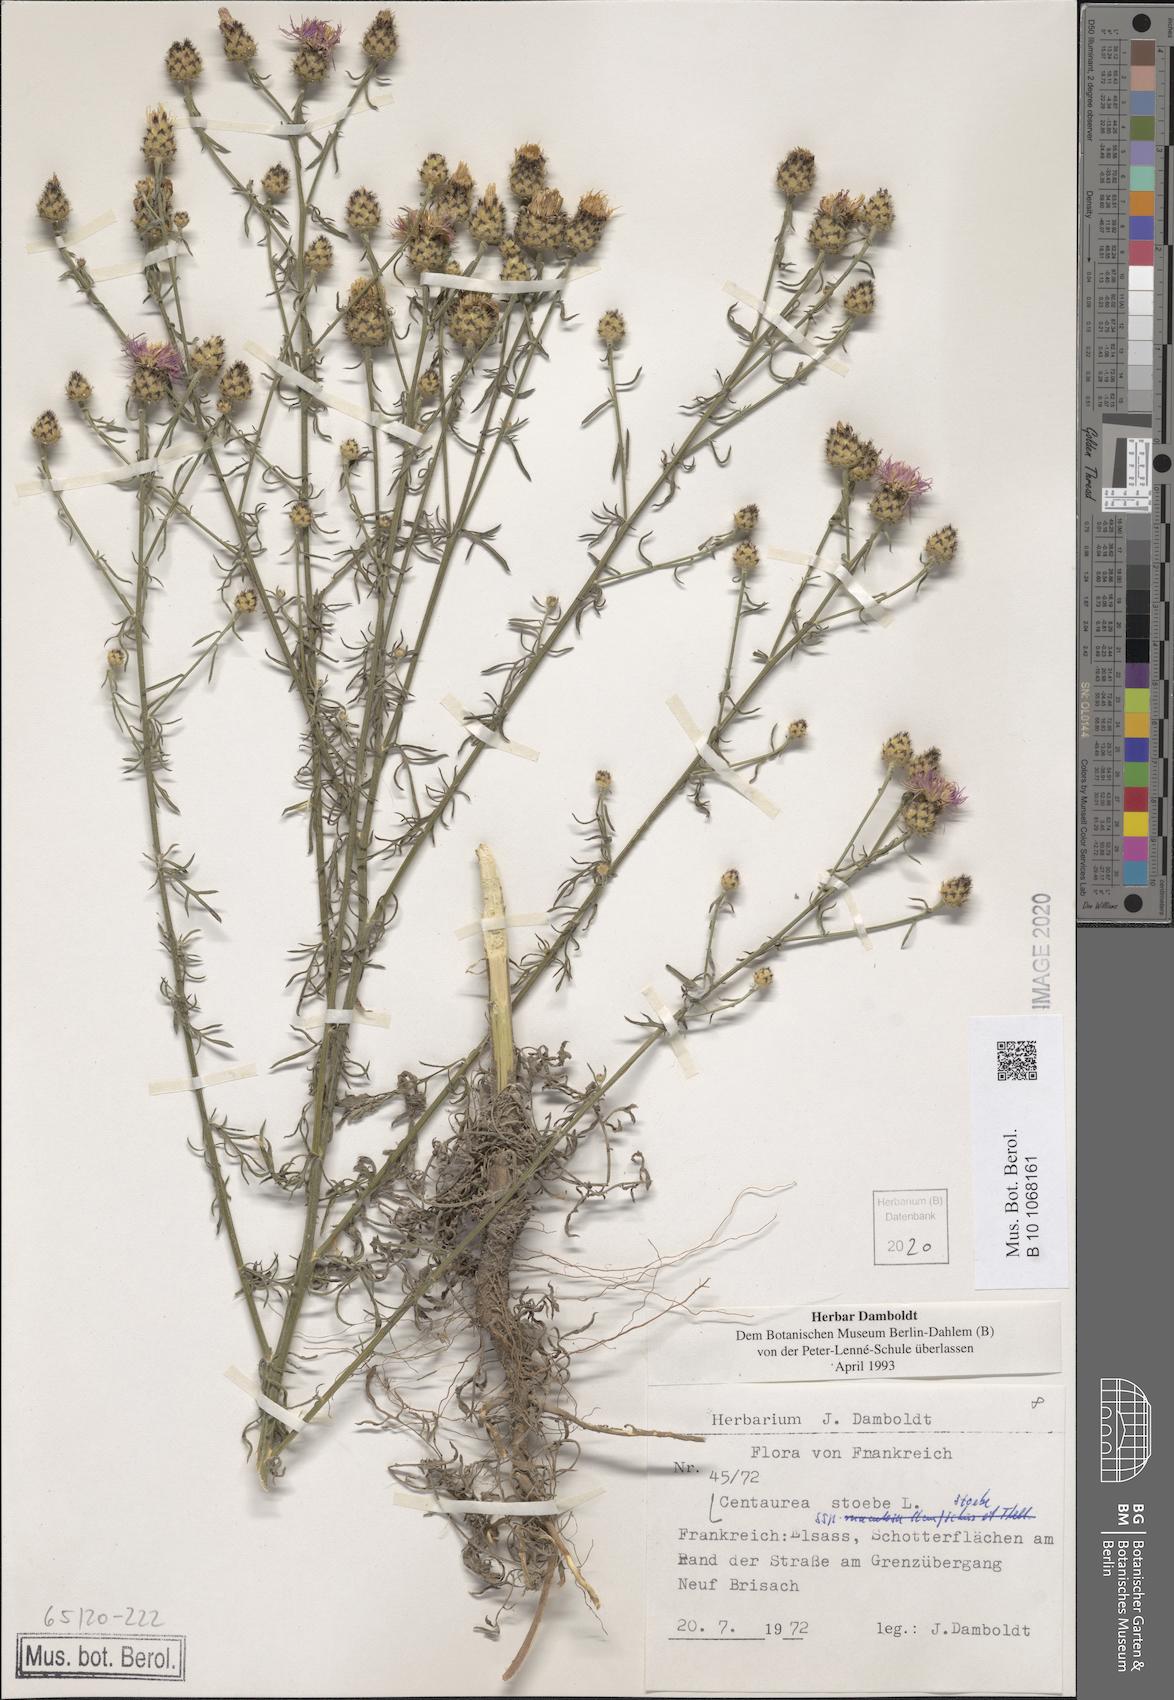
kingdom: Plantae
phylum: Tracheophyta
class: Magnoliopsida
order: Asterales
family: Asteraceae
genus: Centaurea
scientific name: Centaurea stoebe
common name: Spotted knapweed
